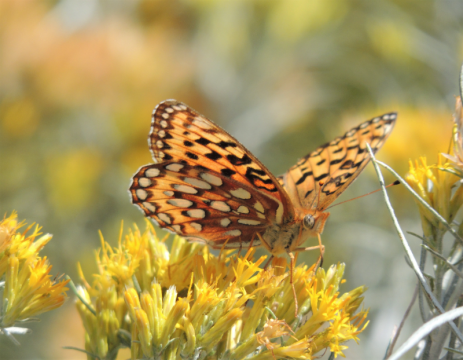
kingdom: Animalia
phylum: Arthropoda
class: Insecta
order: Lepidoptera
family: Nymphalidae
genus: Speyeria
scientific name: Speyeria coronis
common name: Coronis Fritillary
